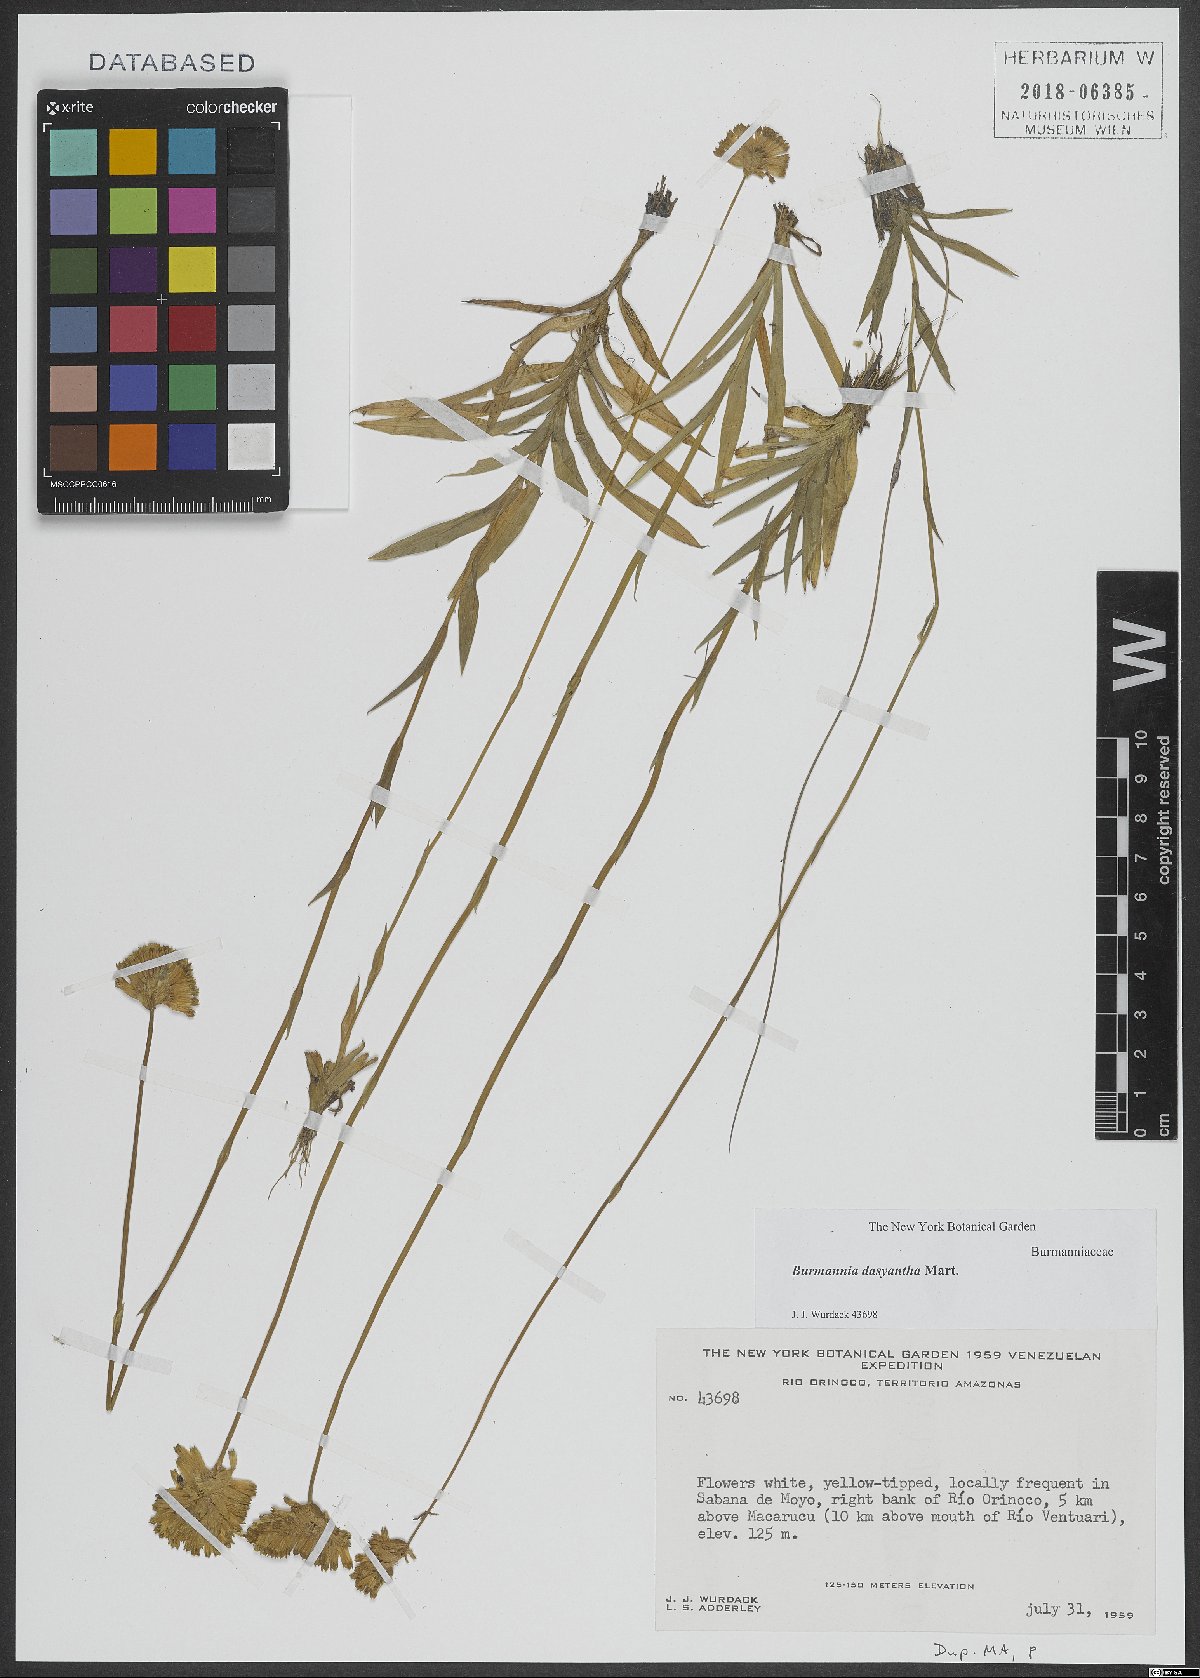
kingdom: Plantae
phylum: Tracheophyta
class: Liliopsida
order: Dioscoreales
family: Burmanniaceae
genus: Burmannia
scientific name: Burmannia dasyantha
